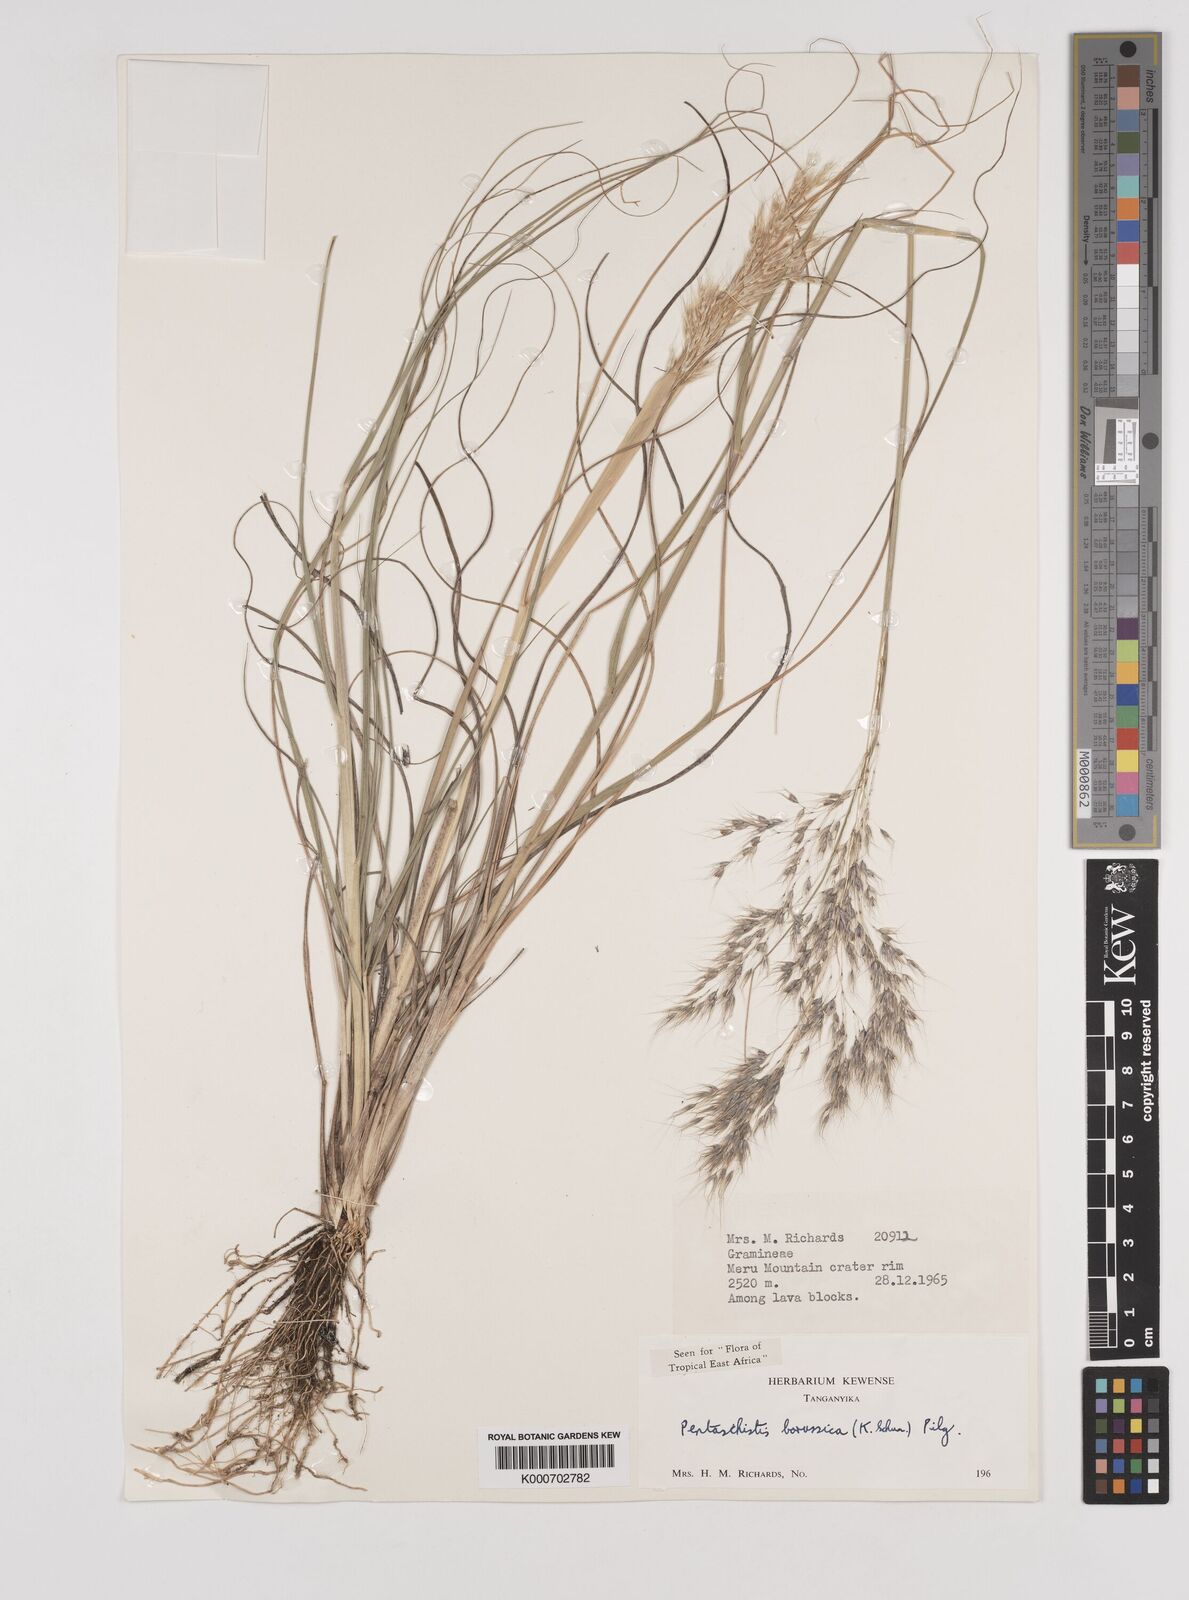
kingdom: Plantae
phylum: Tracheophyta
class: Liliopsida
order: Poales
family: Poaceae
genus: Pentameris
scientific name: Pentameris borussica
